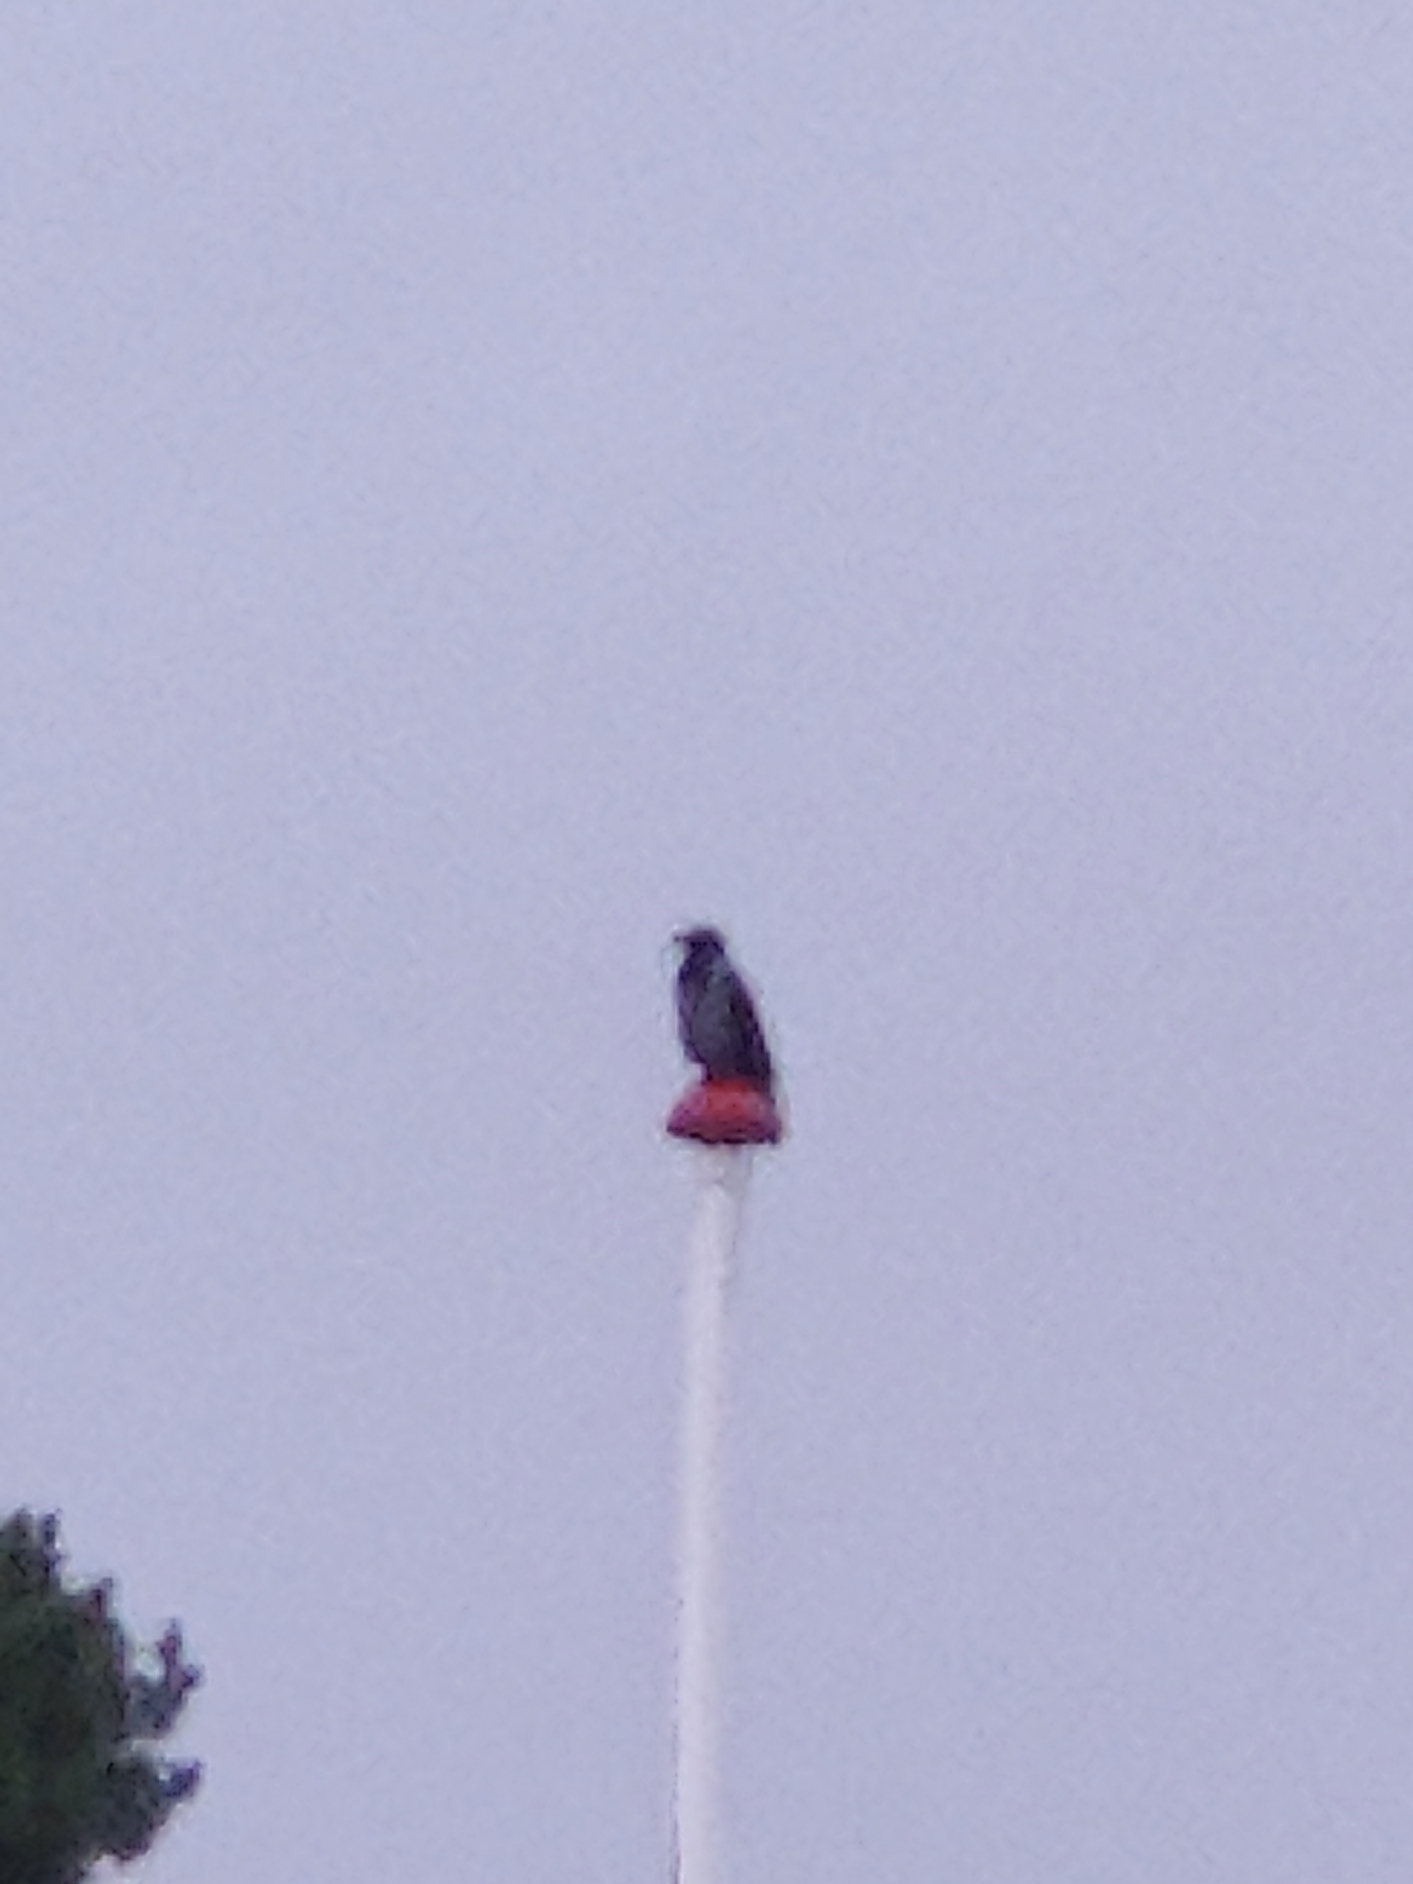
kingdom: Animalia
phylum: Chordata
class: Aves
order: Passeriformes
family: Corvidae
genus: Corvus
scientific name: Corvus cornix
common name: Gråkrage
